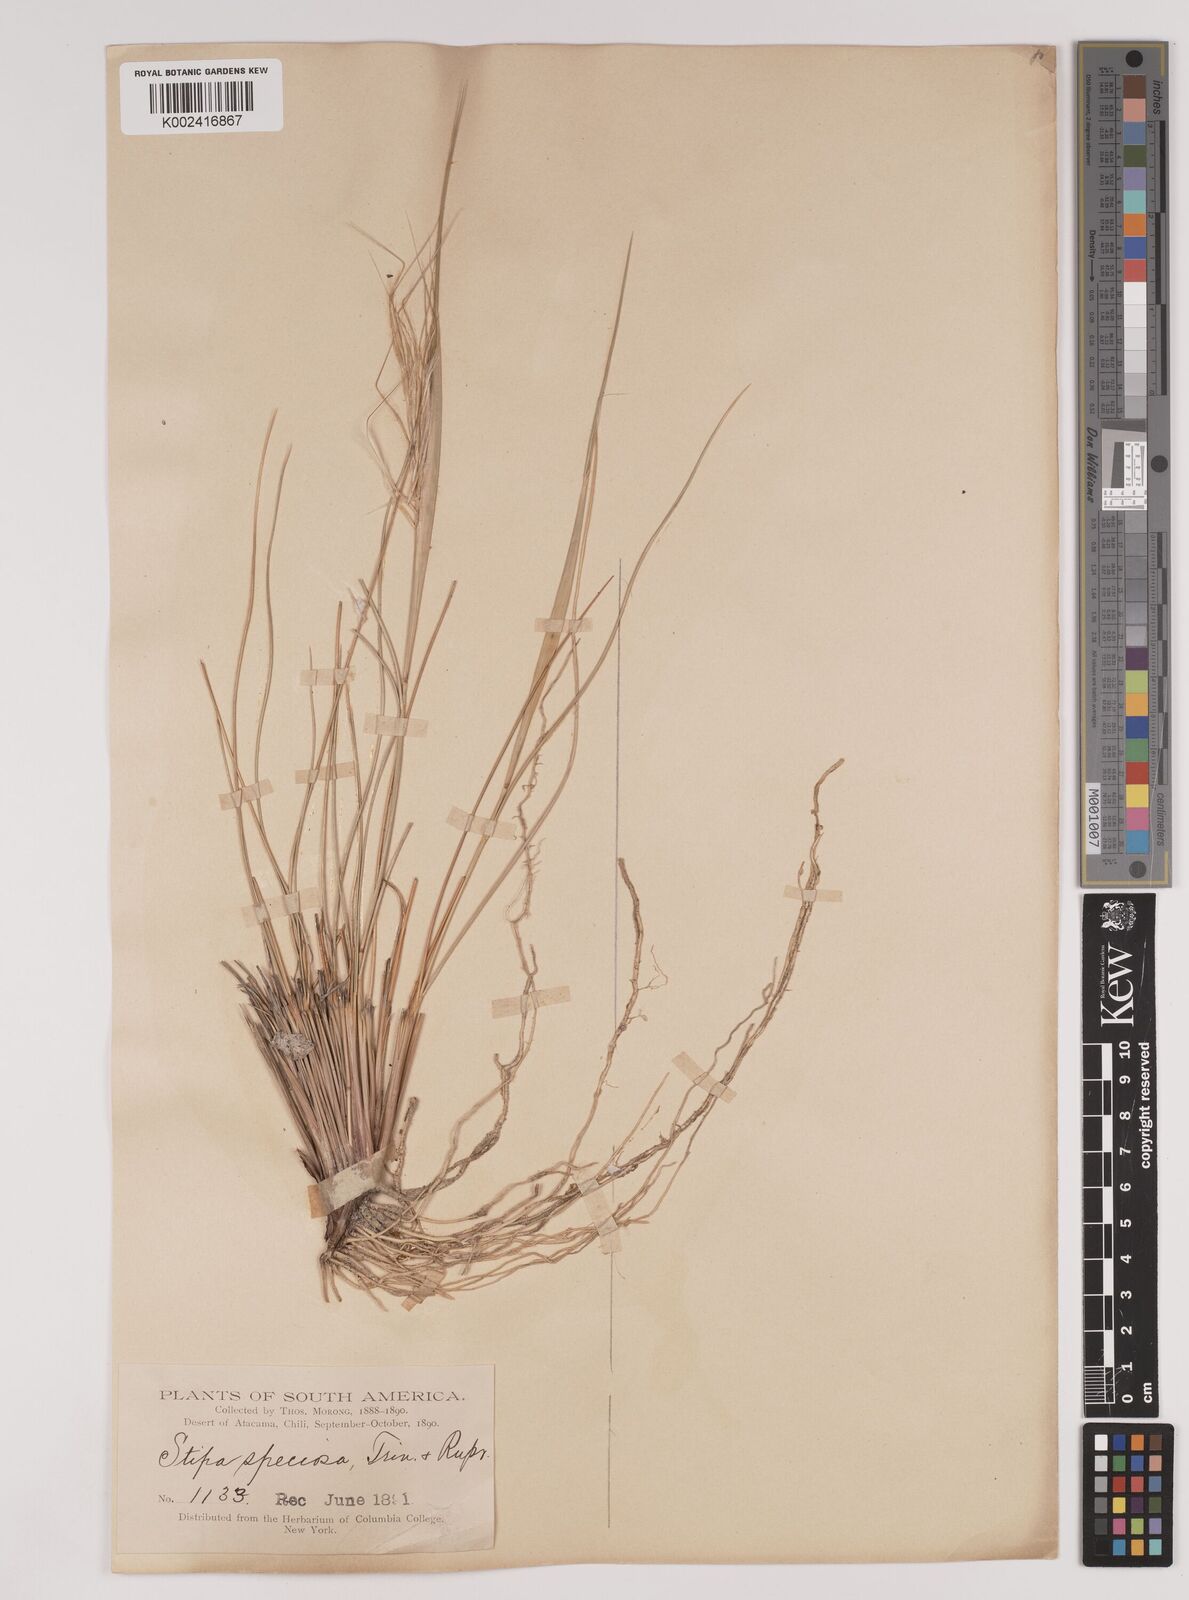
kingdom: Plantae
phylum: Tracheophyta
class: Liliopsida
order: Poales
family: Poaceae
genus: Pappostipa
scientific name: Pappostipa speciosa
